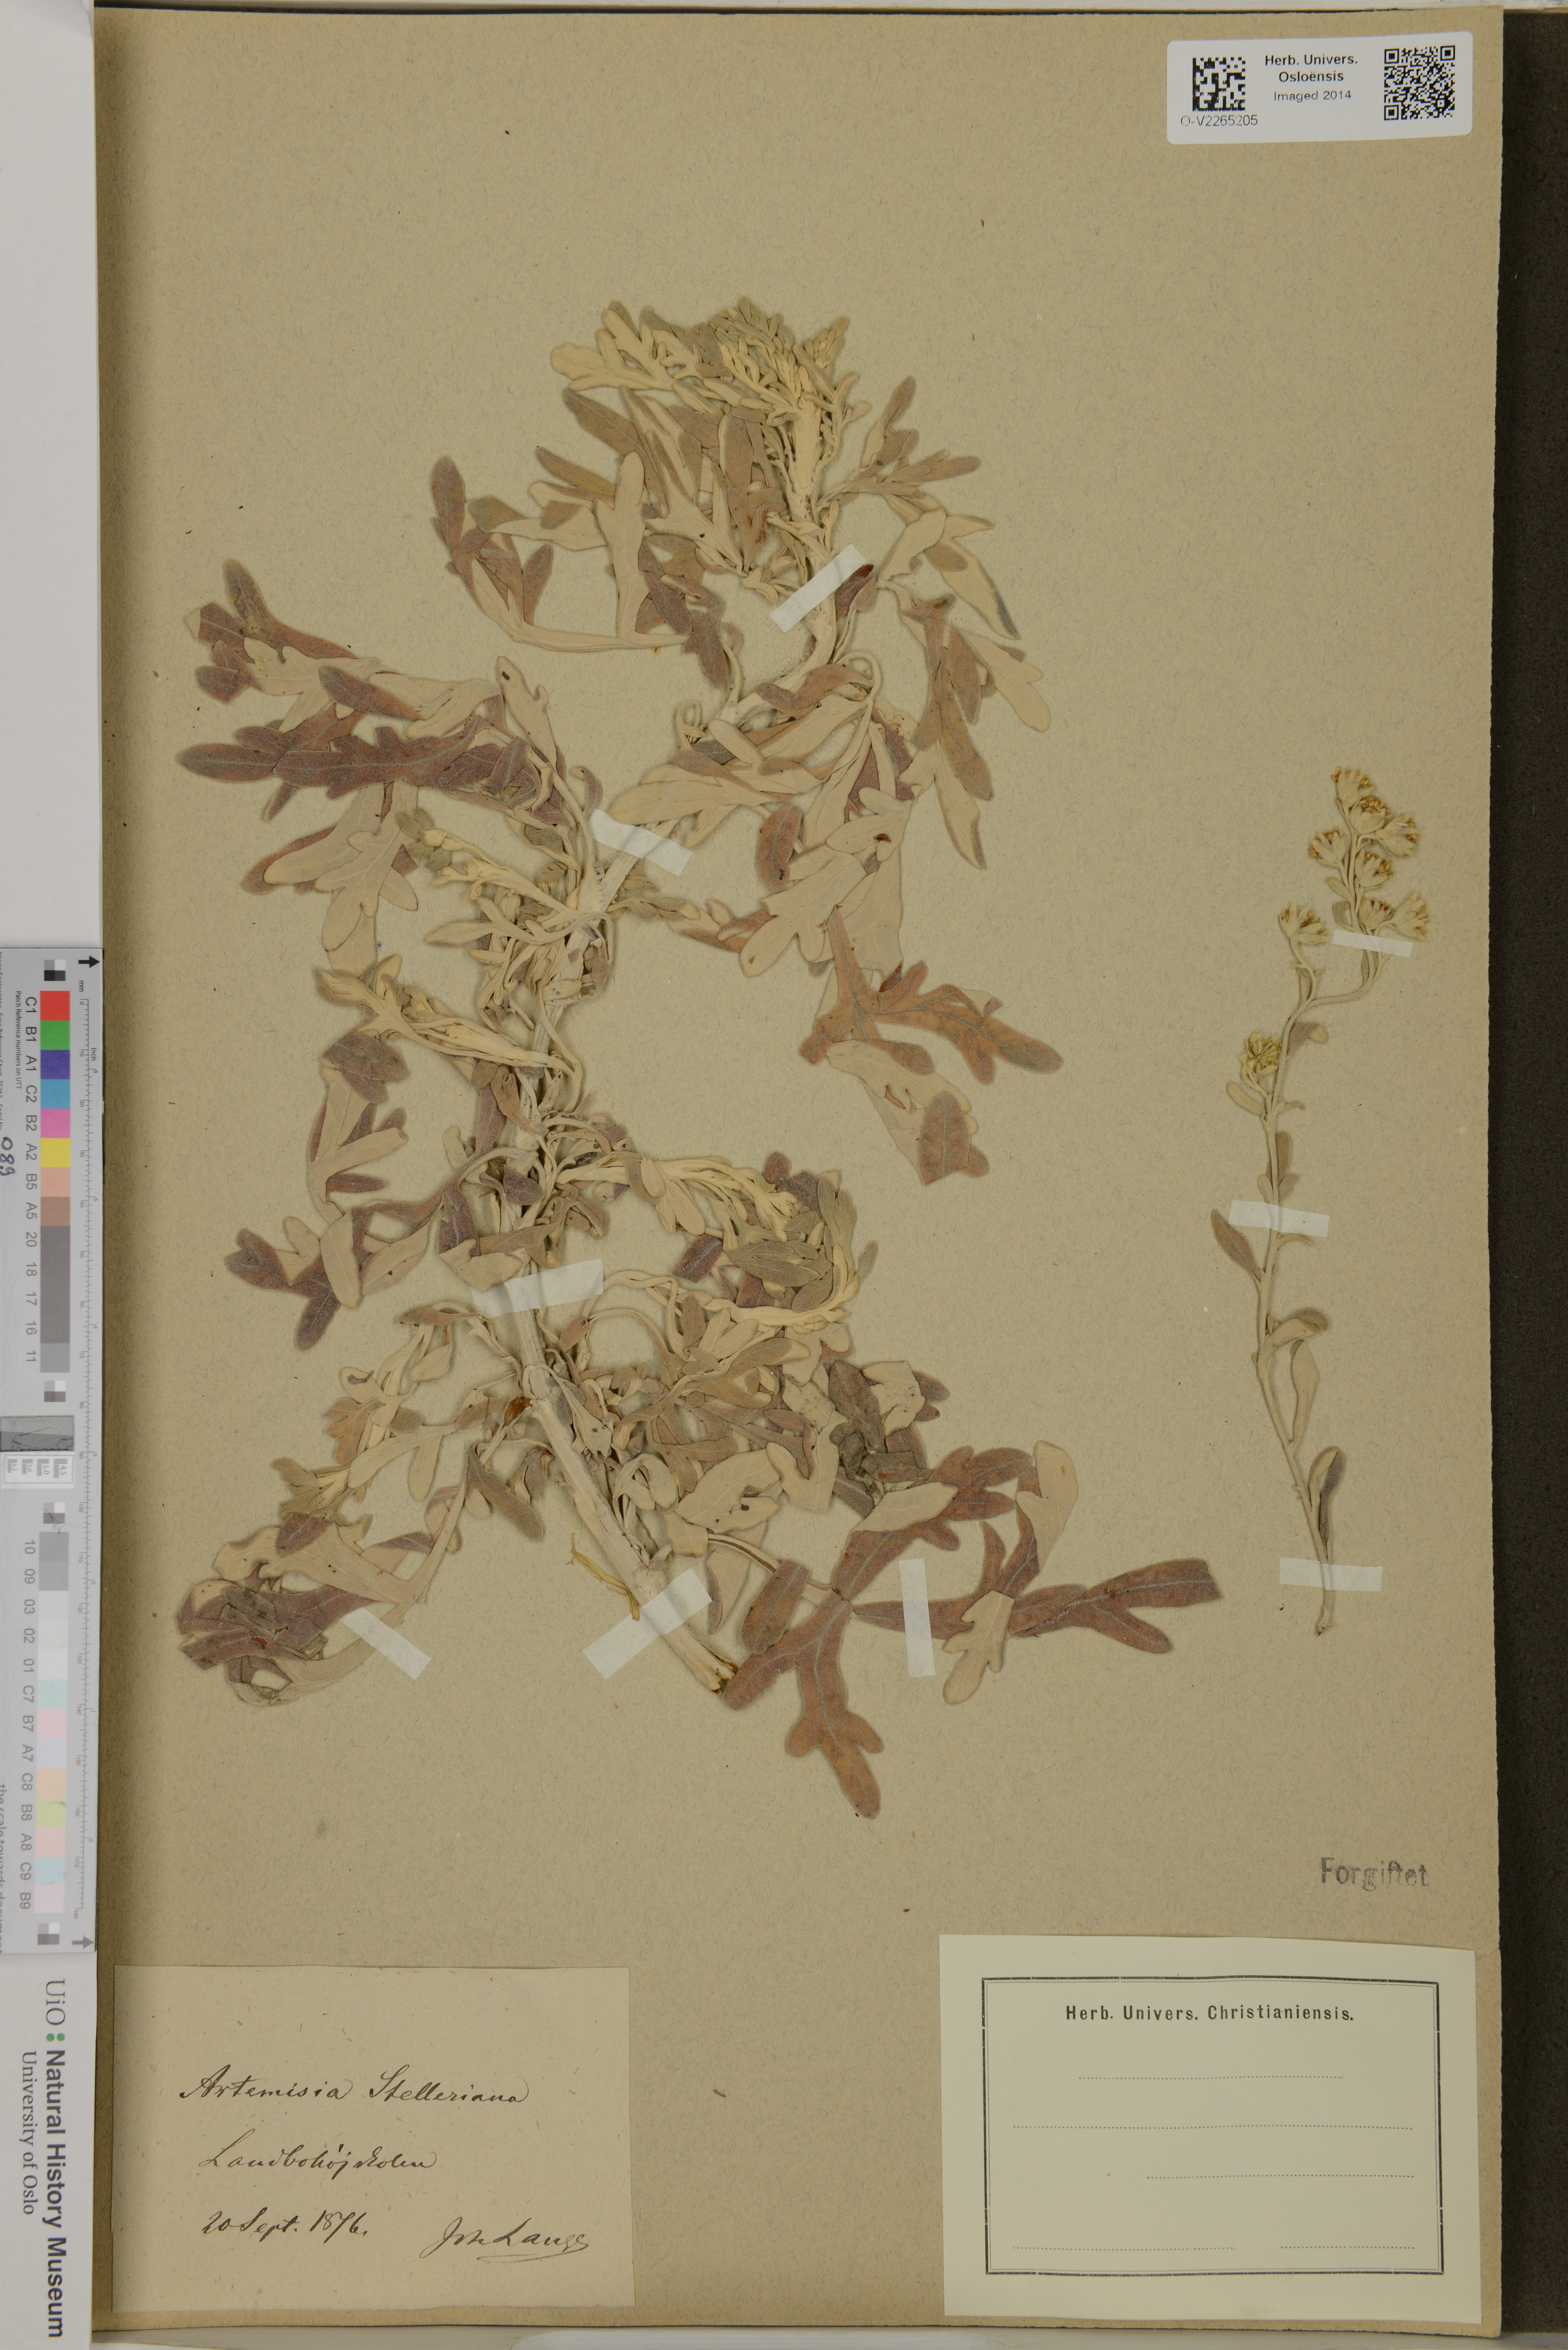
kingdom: Plantae
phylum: Tracheophyta
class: Magnoliopsida
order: Asterales
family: Asteraceae
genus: Artemisia
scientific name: Artemisia stelleriana
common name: Beach wormwood
